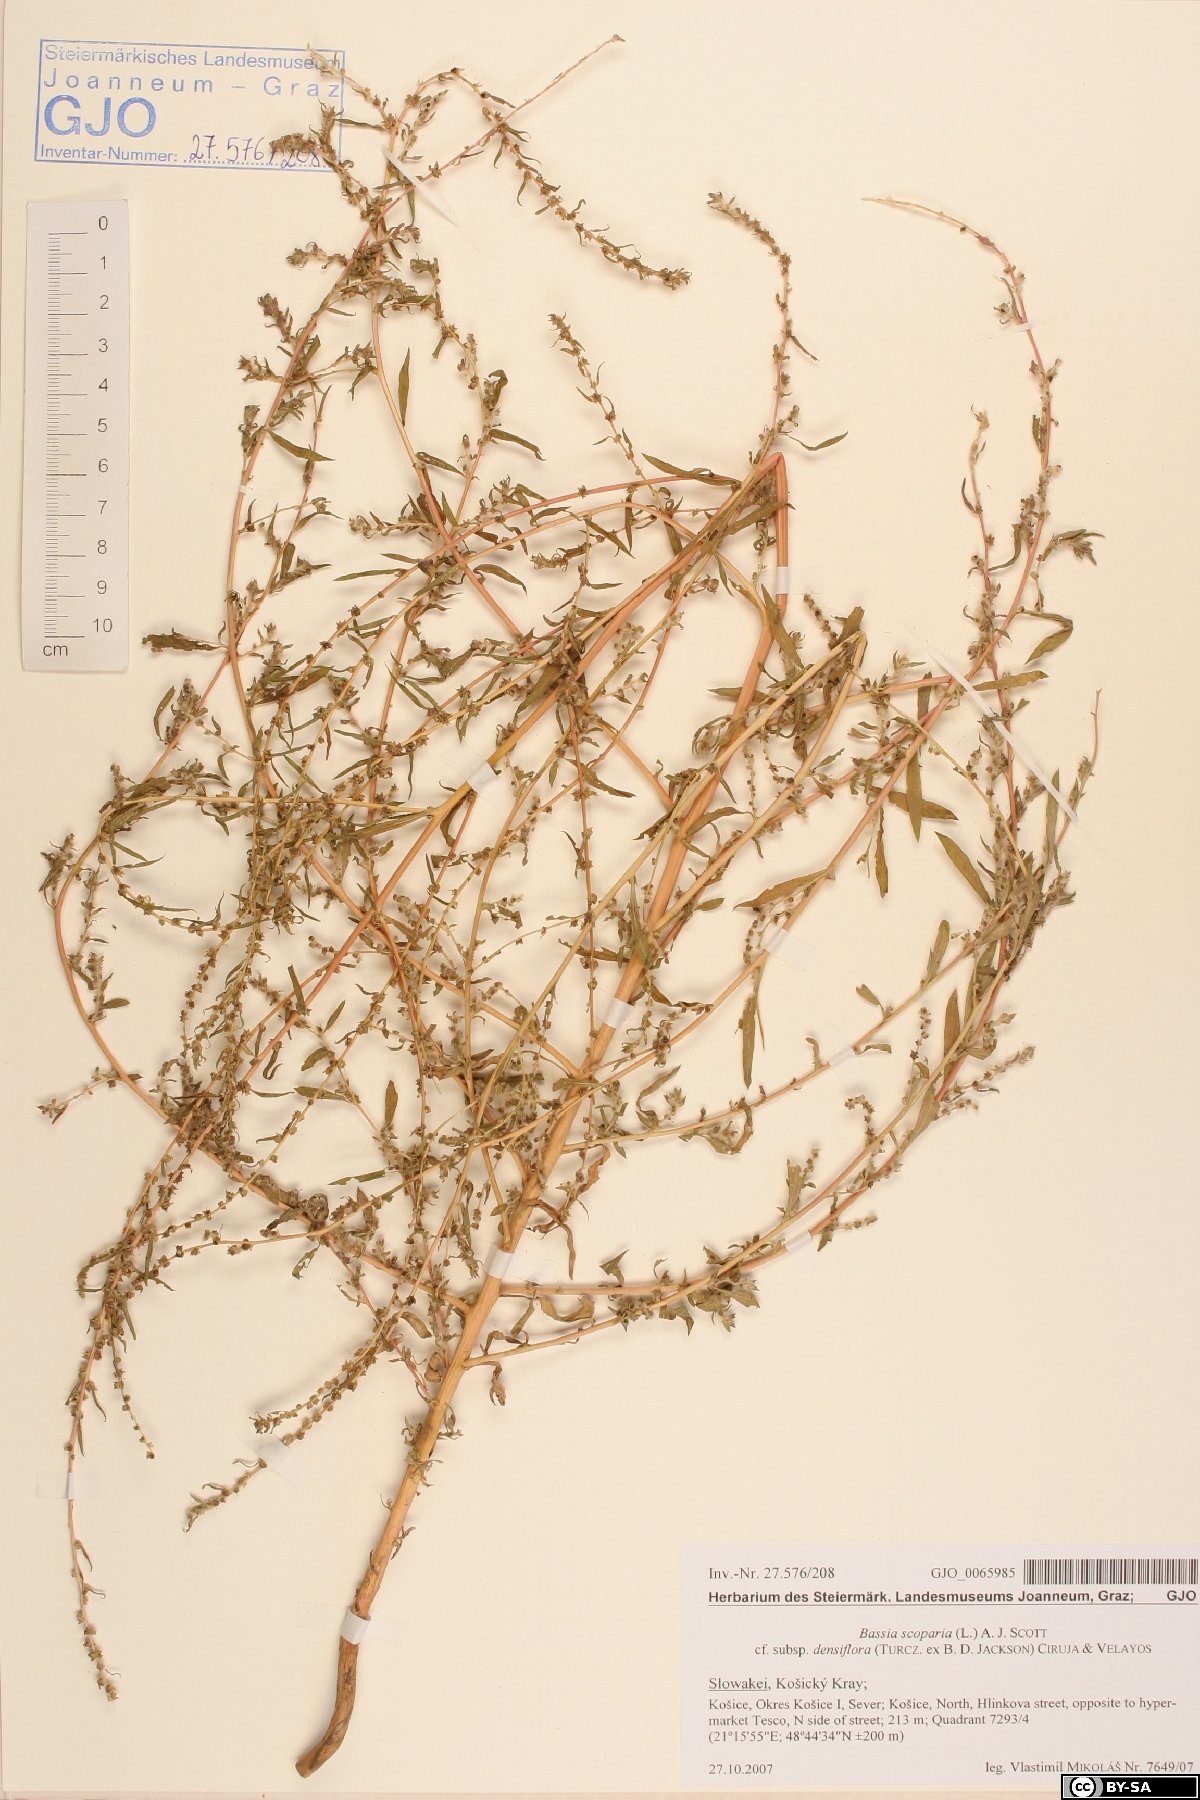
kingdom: Plantae
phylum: Tracheophyta
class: Magnoliopsida
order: Caryophyllales
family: Amaranthaceae
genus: Bassia
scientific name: Bassia scoparia
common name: Belvedere
